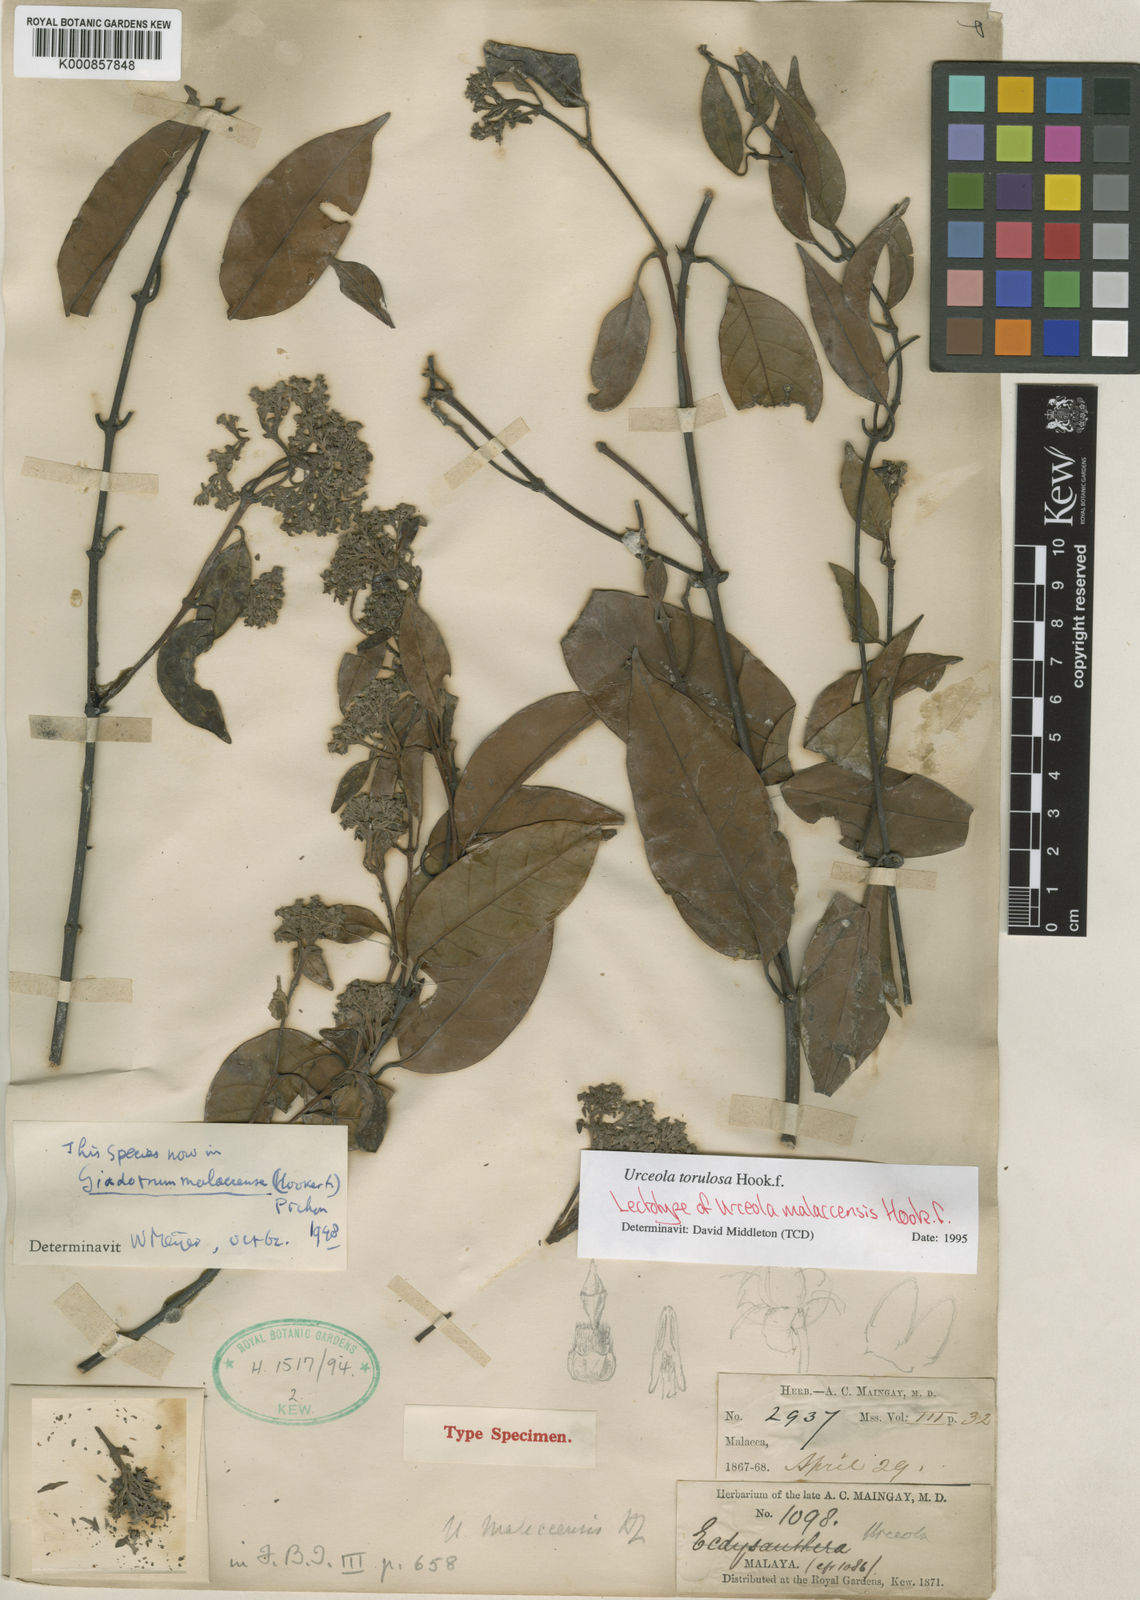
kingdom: Plantae
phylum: Tracheophyta
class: Magnoliopsida
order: Gentianales
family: Apocynaceae
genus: Urceola
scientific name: Urceola torulosa
